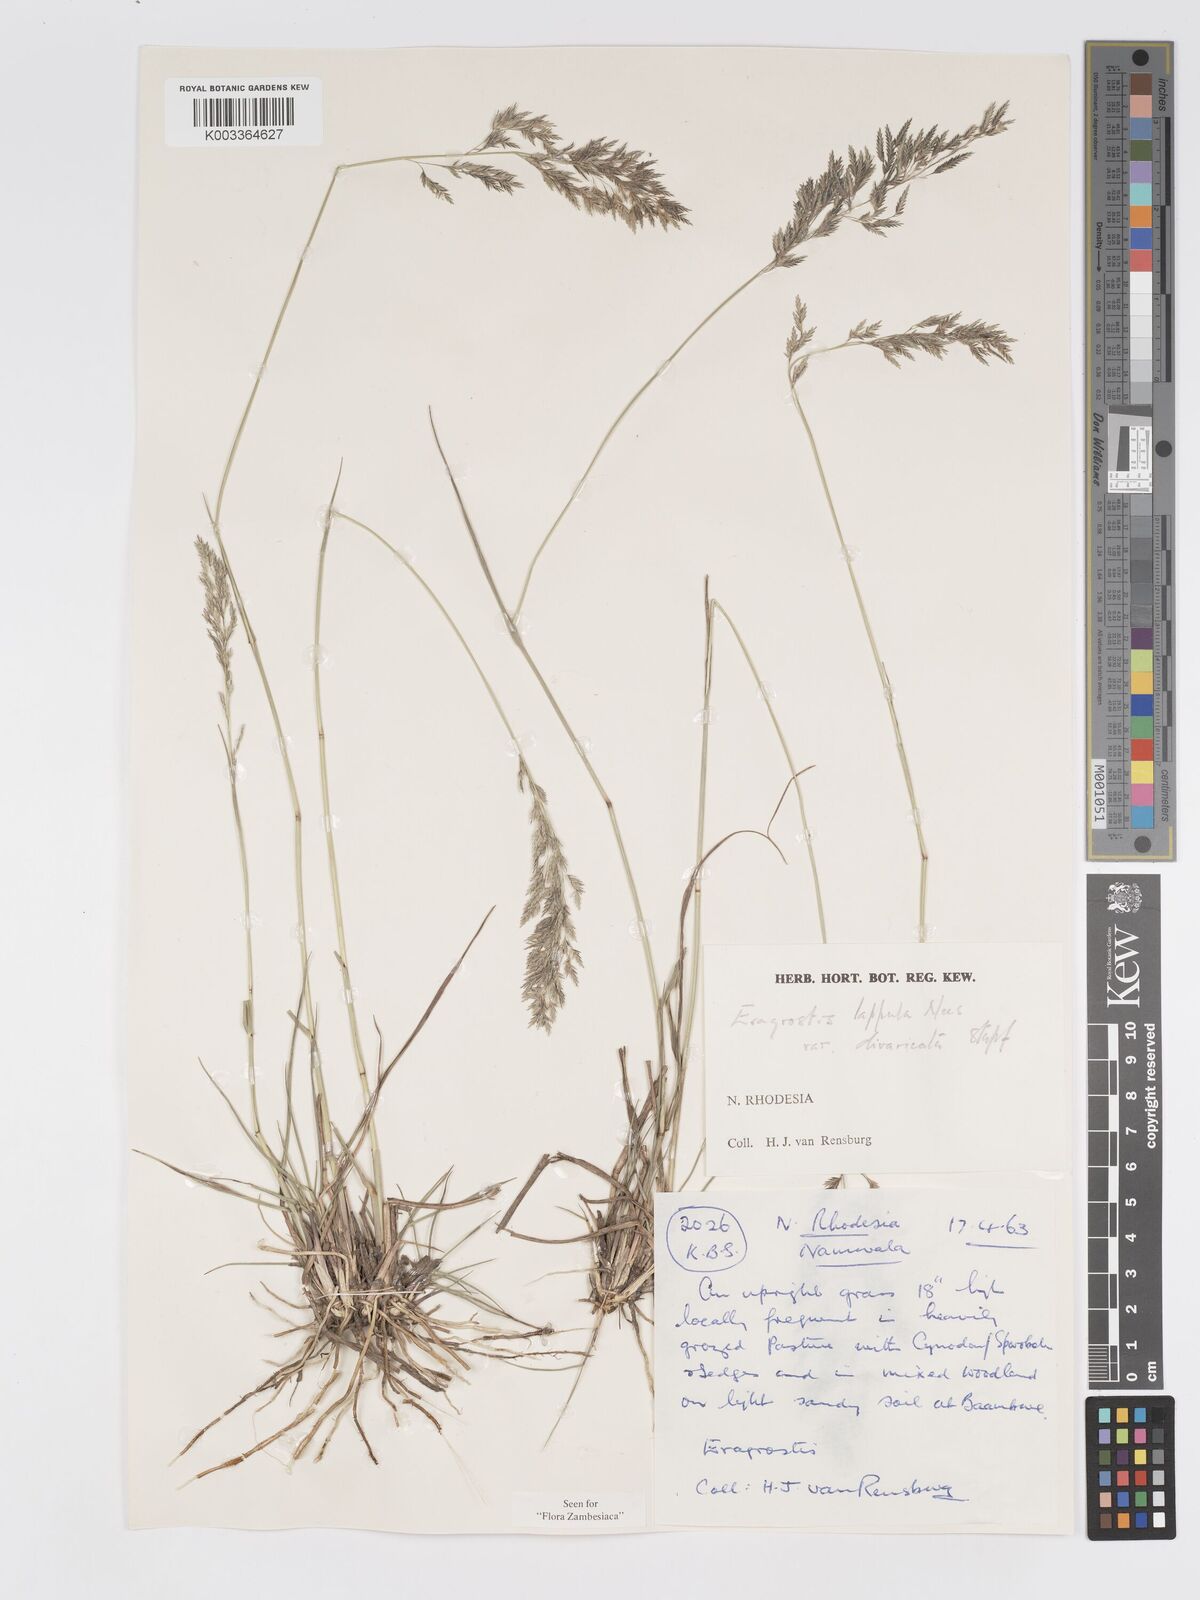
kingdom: Plantae
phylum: Tracheophyta
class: Liliopsida
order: Poales
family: Poaceae
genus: Eragrostis
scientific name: Eragrostis lappula
